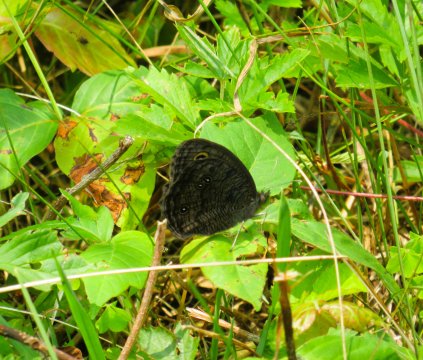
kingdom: Animalia
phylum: Arthropoda
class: Insecta
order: Lepidoptera
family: Nymphalidae
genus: Cercyonis
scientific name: Cercyonis pegala
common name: Common Wood-Nymph
